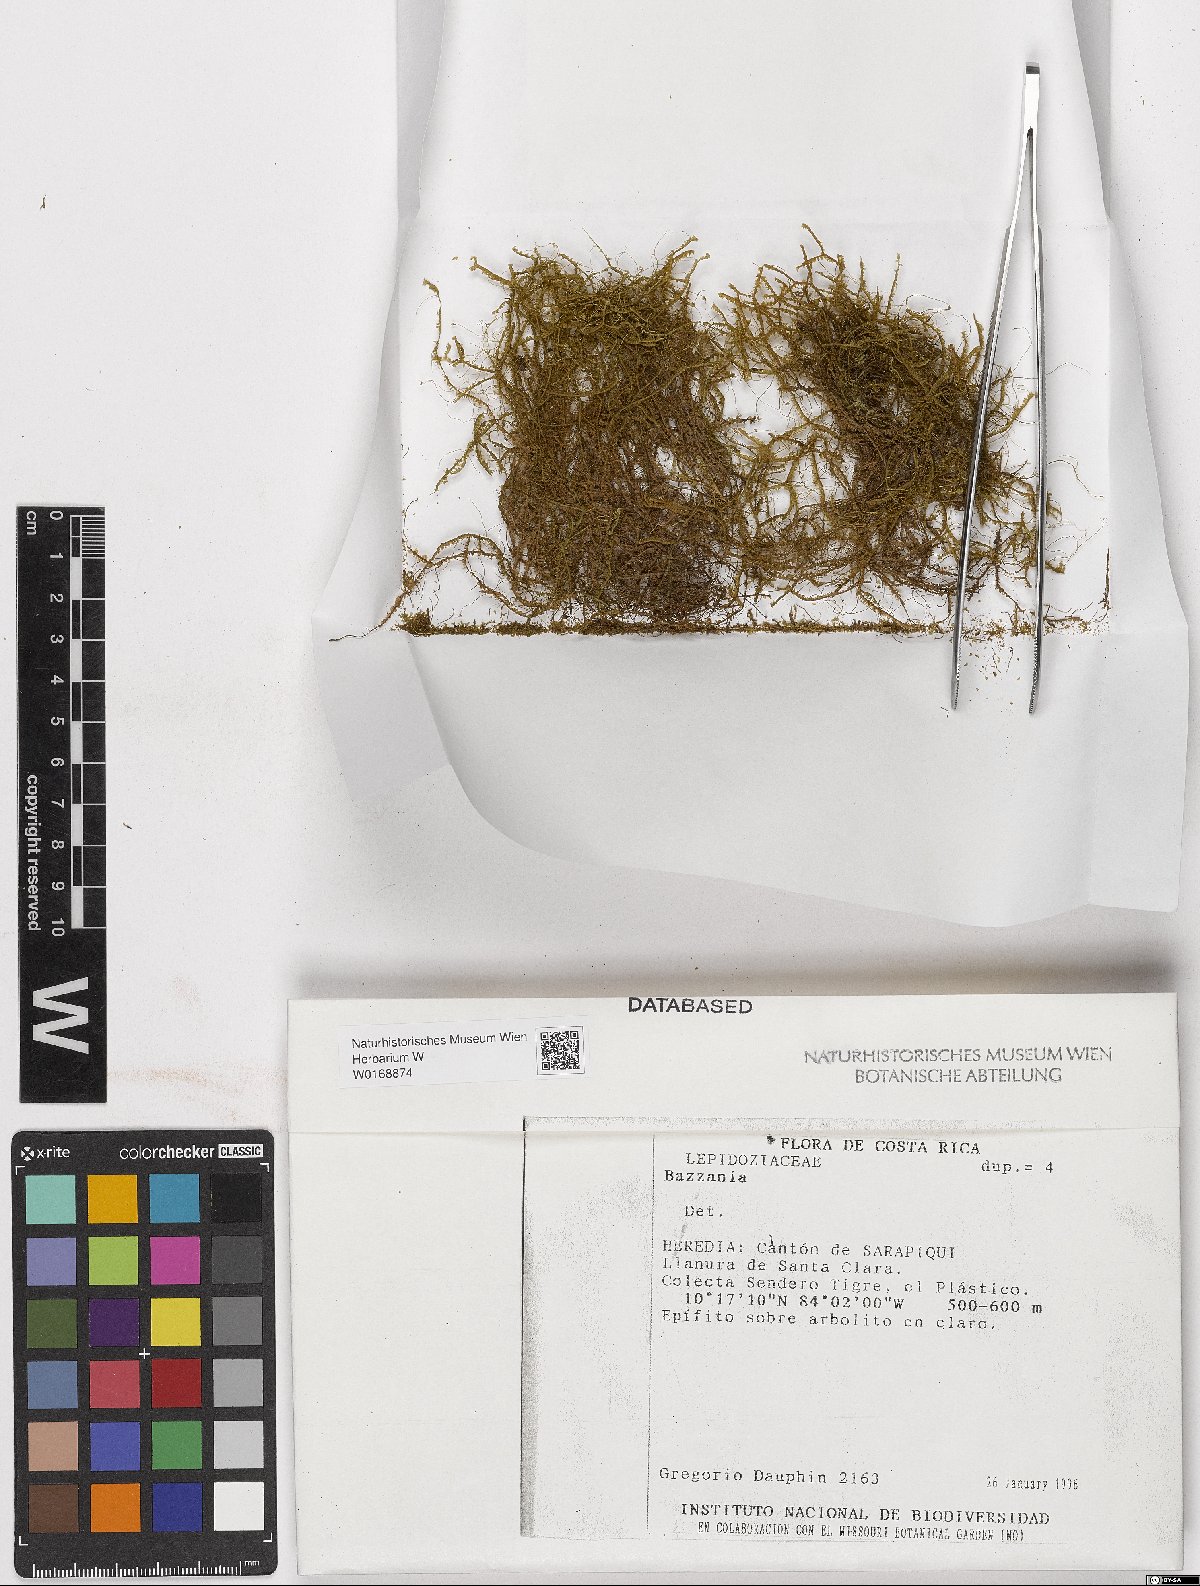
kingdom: Plantae
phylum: Marchantiophyta
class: Jungermanniopsida
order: Jungermanniales
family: Lepidoziaceae
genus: Bazzania
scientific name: Bazzania
